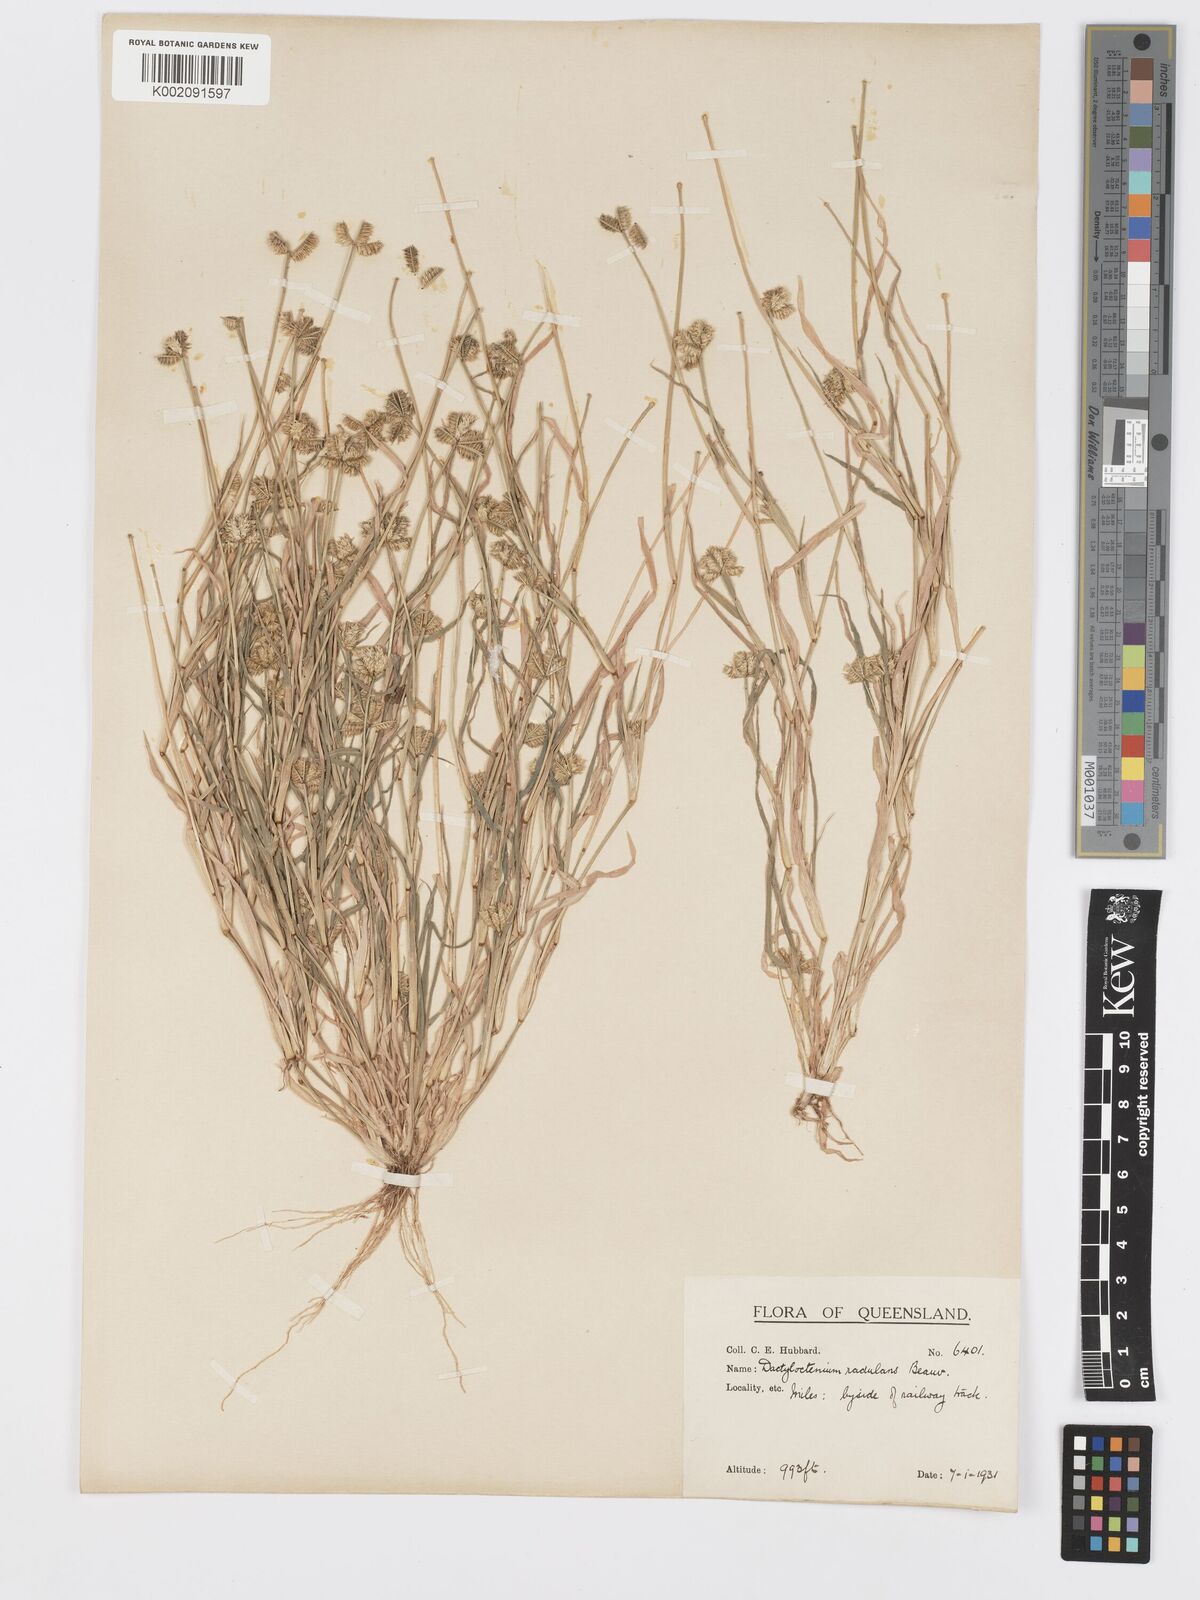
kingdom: Plantae
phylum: Tracheophyta
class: Liliopsida
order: Poales
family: Poaceae
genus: Dactyloctenium
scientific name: Dactyloctenium radulans
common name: Button-grass
